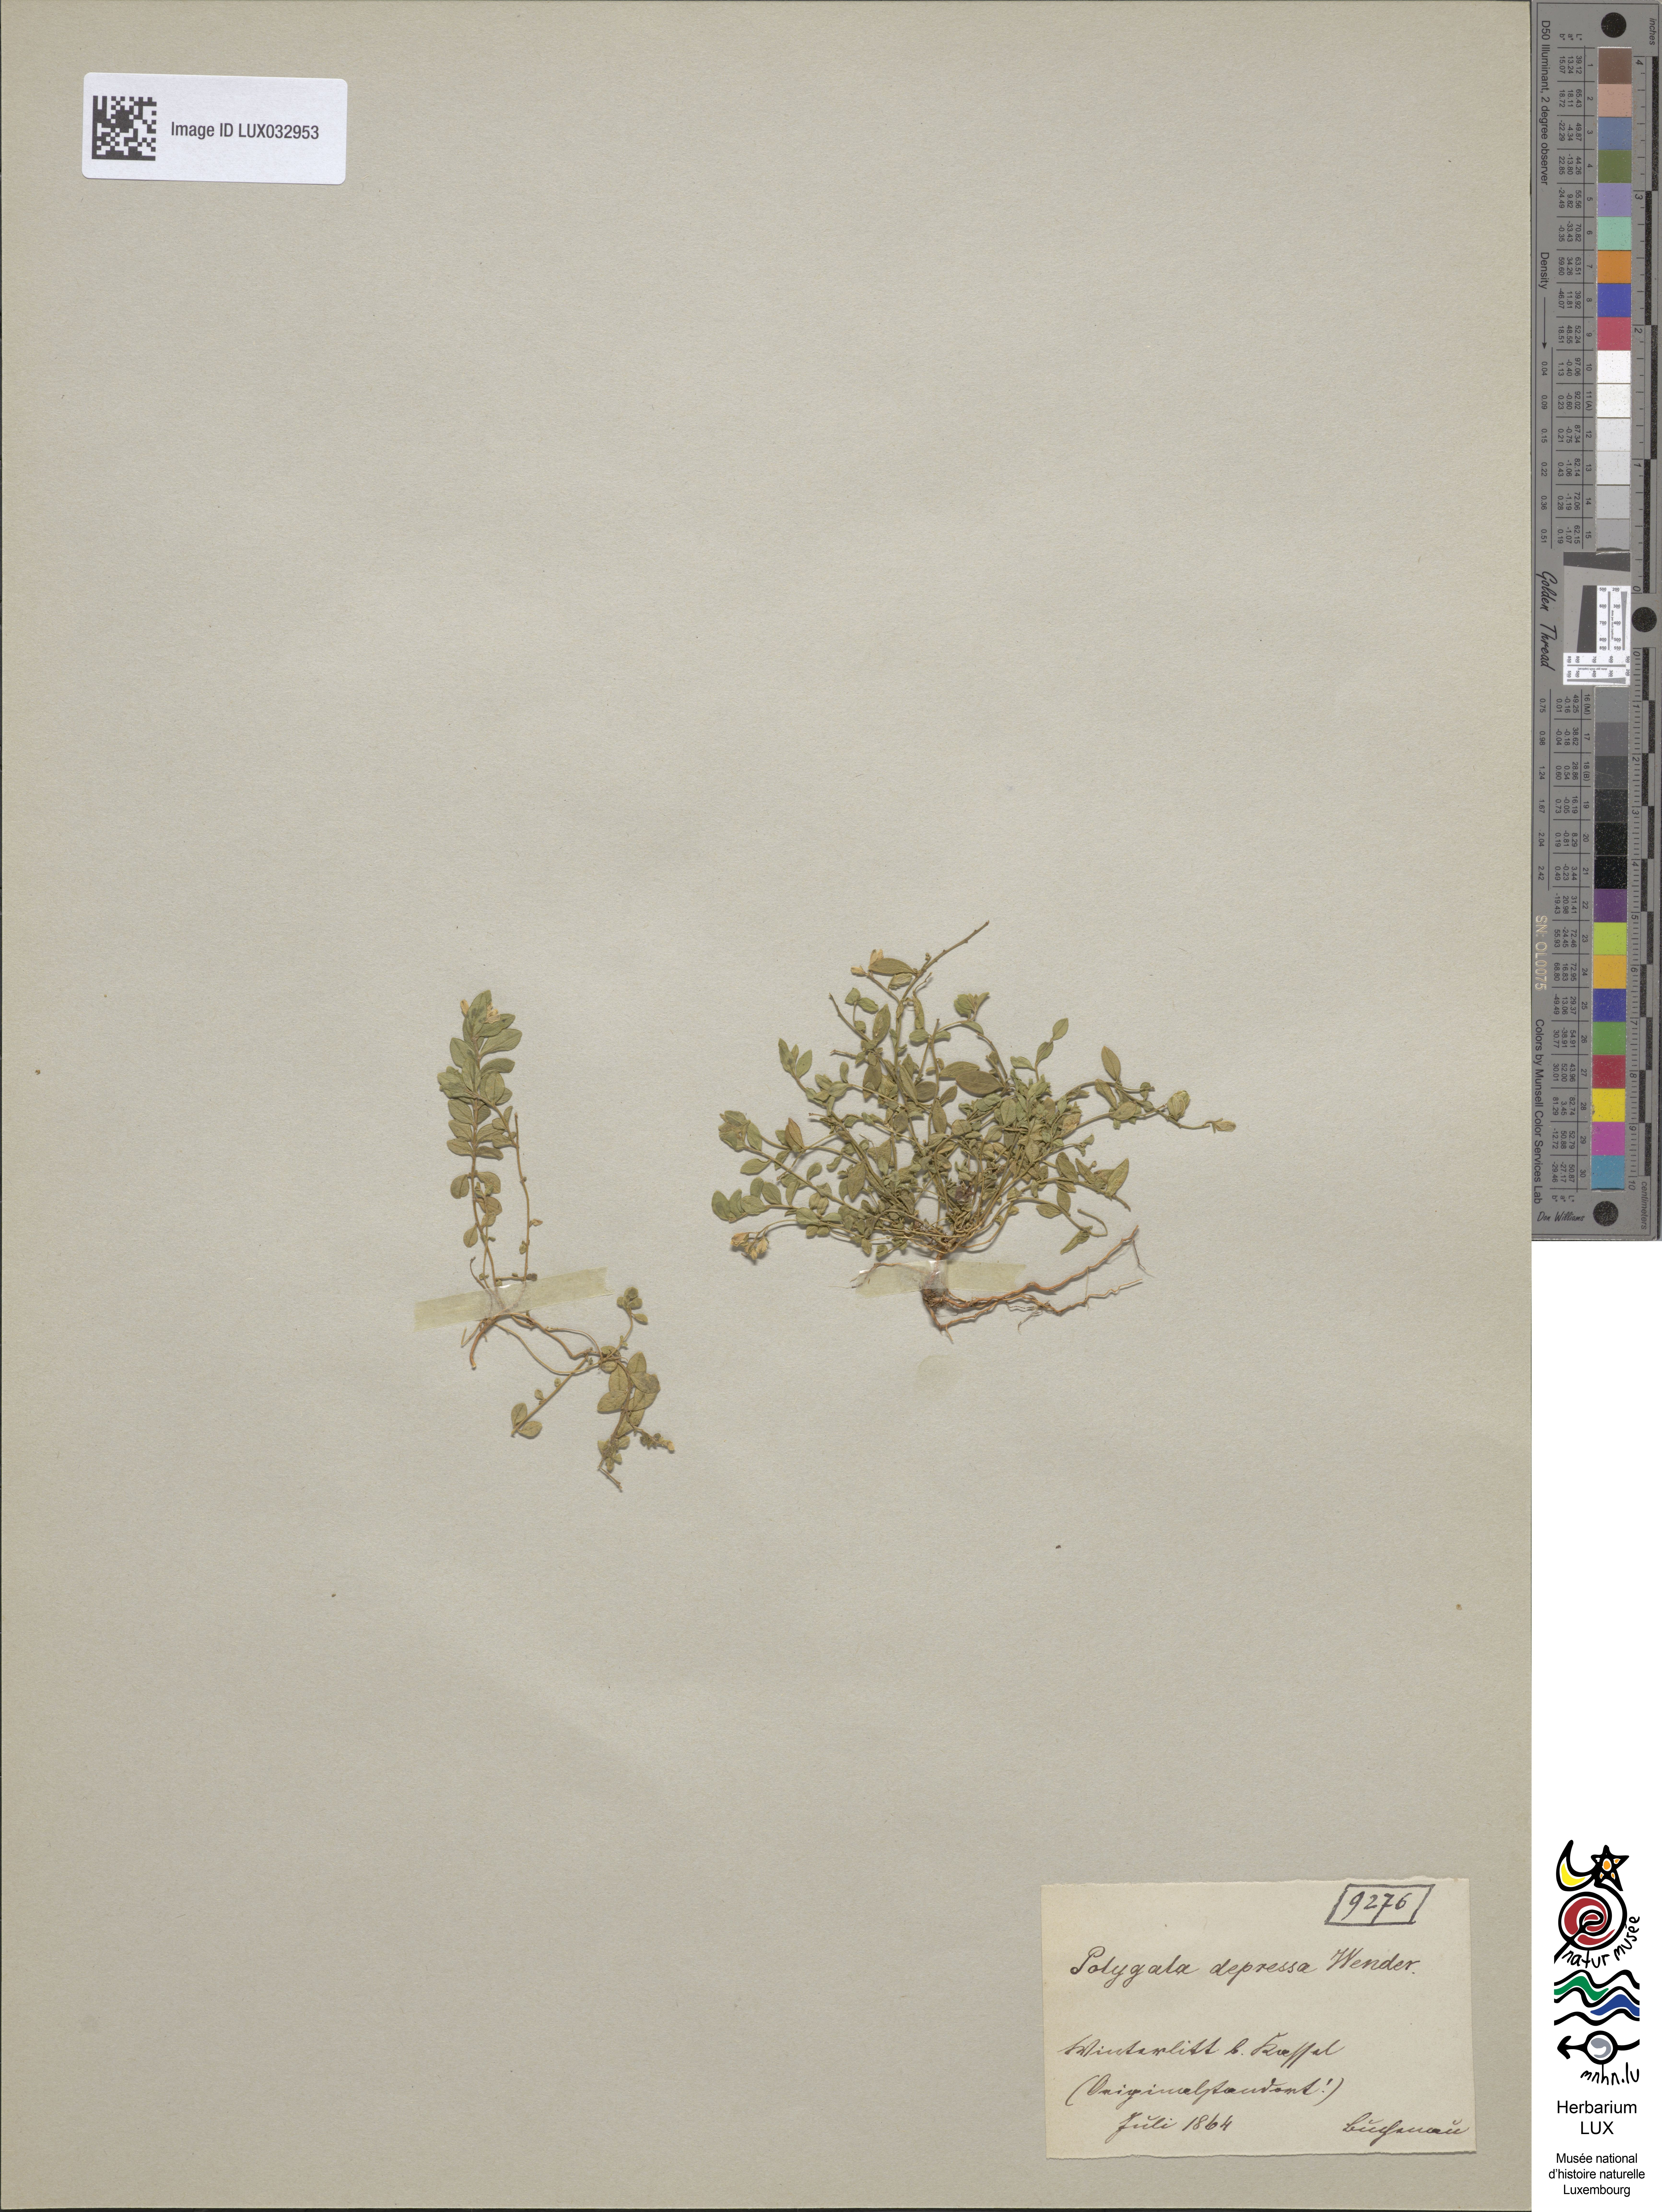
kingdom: Plantae
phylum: Tracheophyta
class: Magnoliopsida
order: Fabales
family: Polygalaceae
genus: Polygala
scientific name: Polygala serpyllifolia
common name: Heath milkwort
